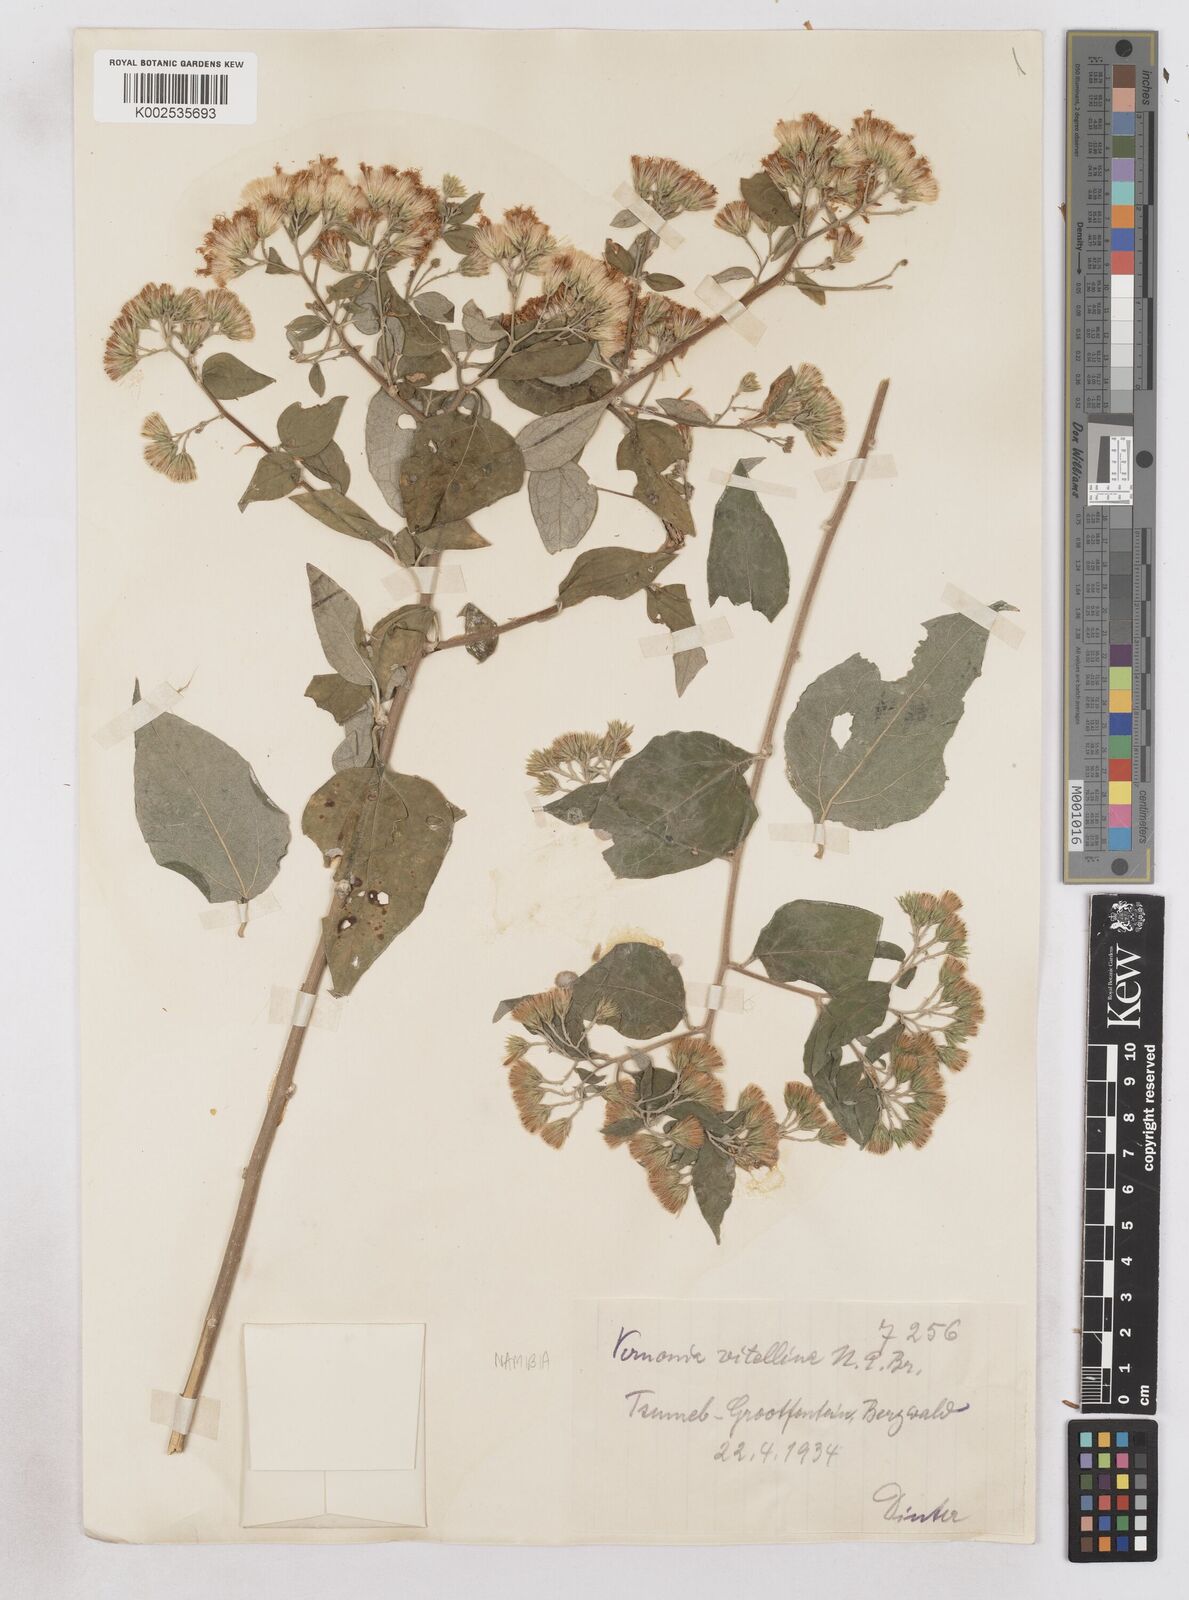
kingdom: Plantae
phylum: Tracheophyta
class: Magnoliopsida
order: Asterales
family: Asteraceae
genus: Distephanus
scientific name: Distephanus
